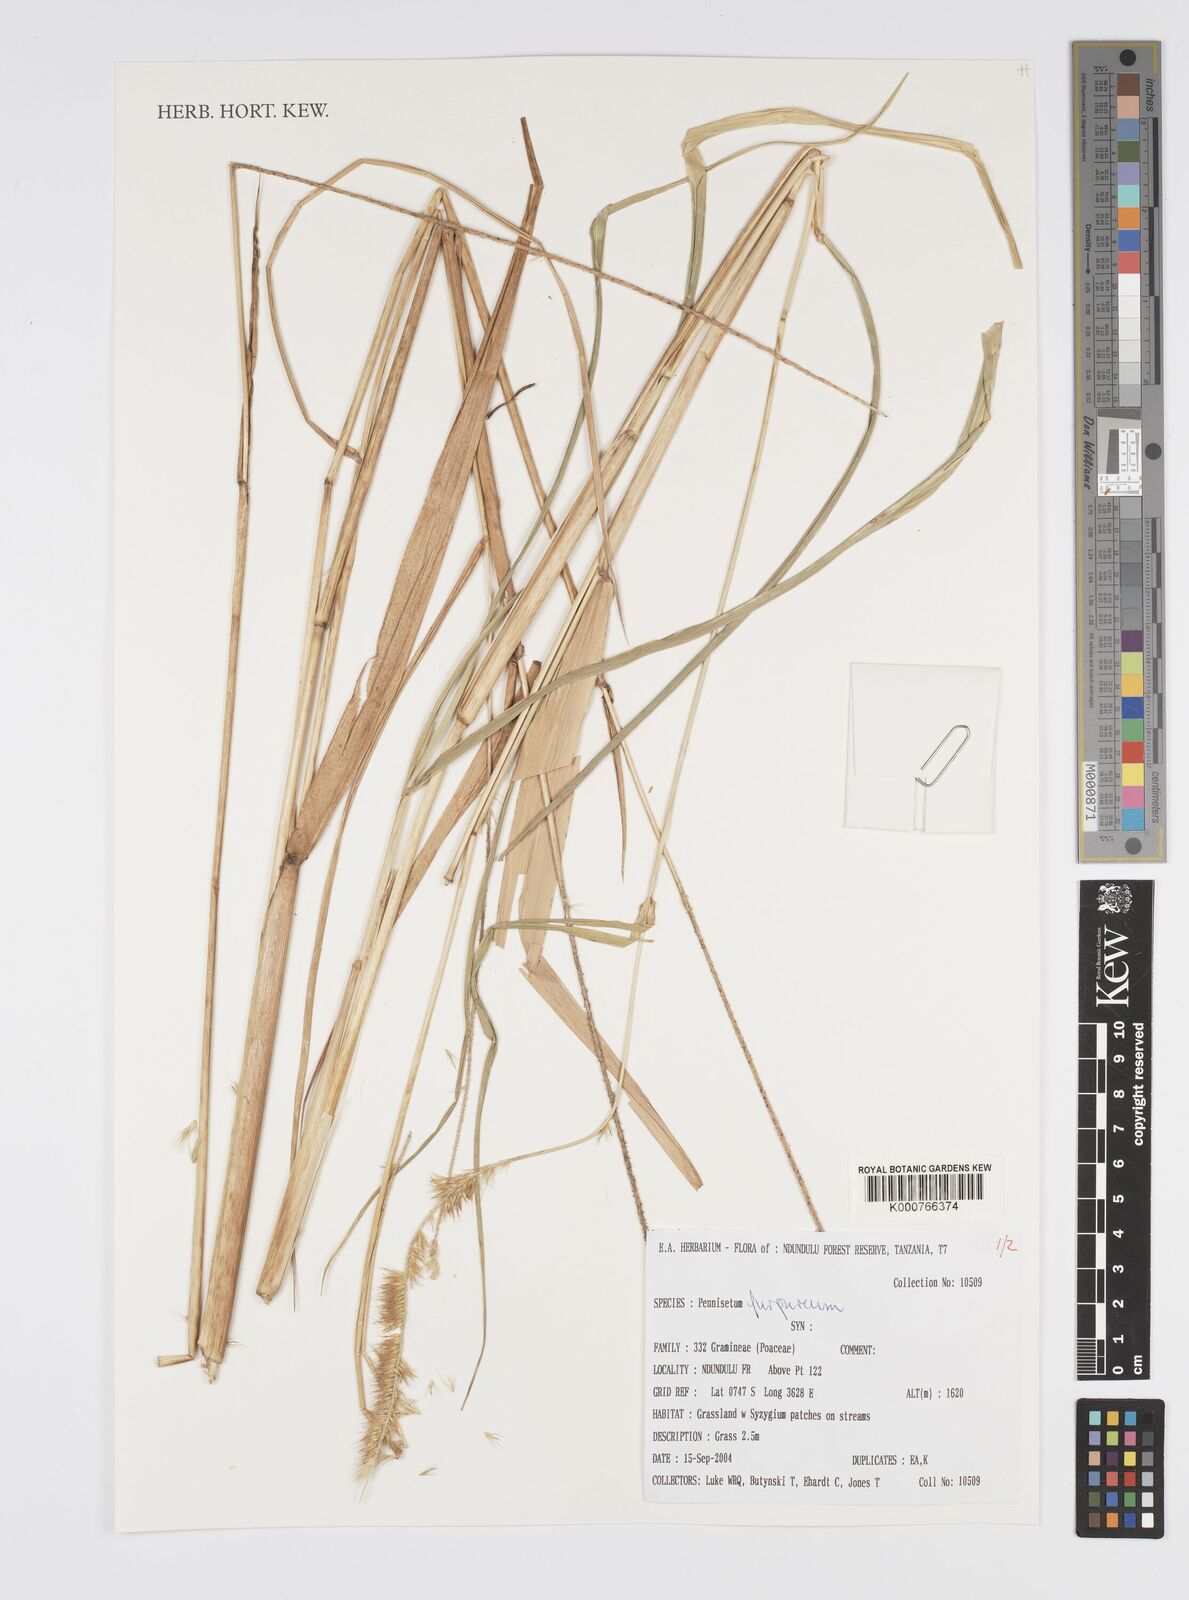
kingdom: Plantae
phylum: Tracheophyta
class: Liliopsida
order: Poales
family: Poaceae
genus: Cenchrus
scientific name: Cenchrus purpureus
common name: Elephant grass
